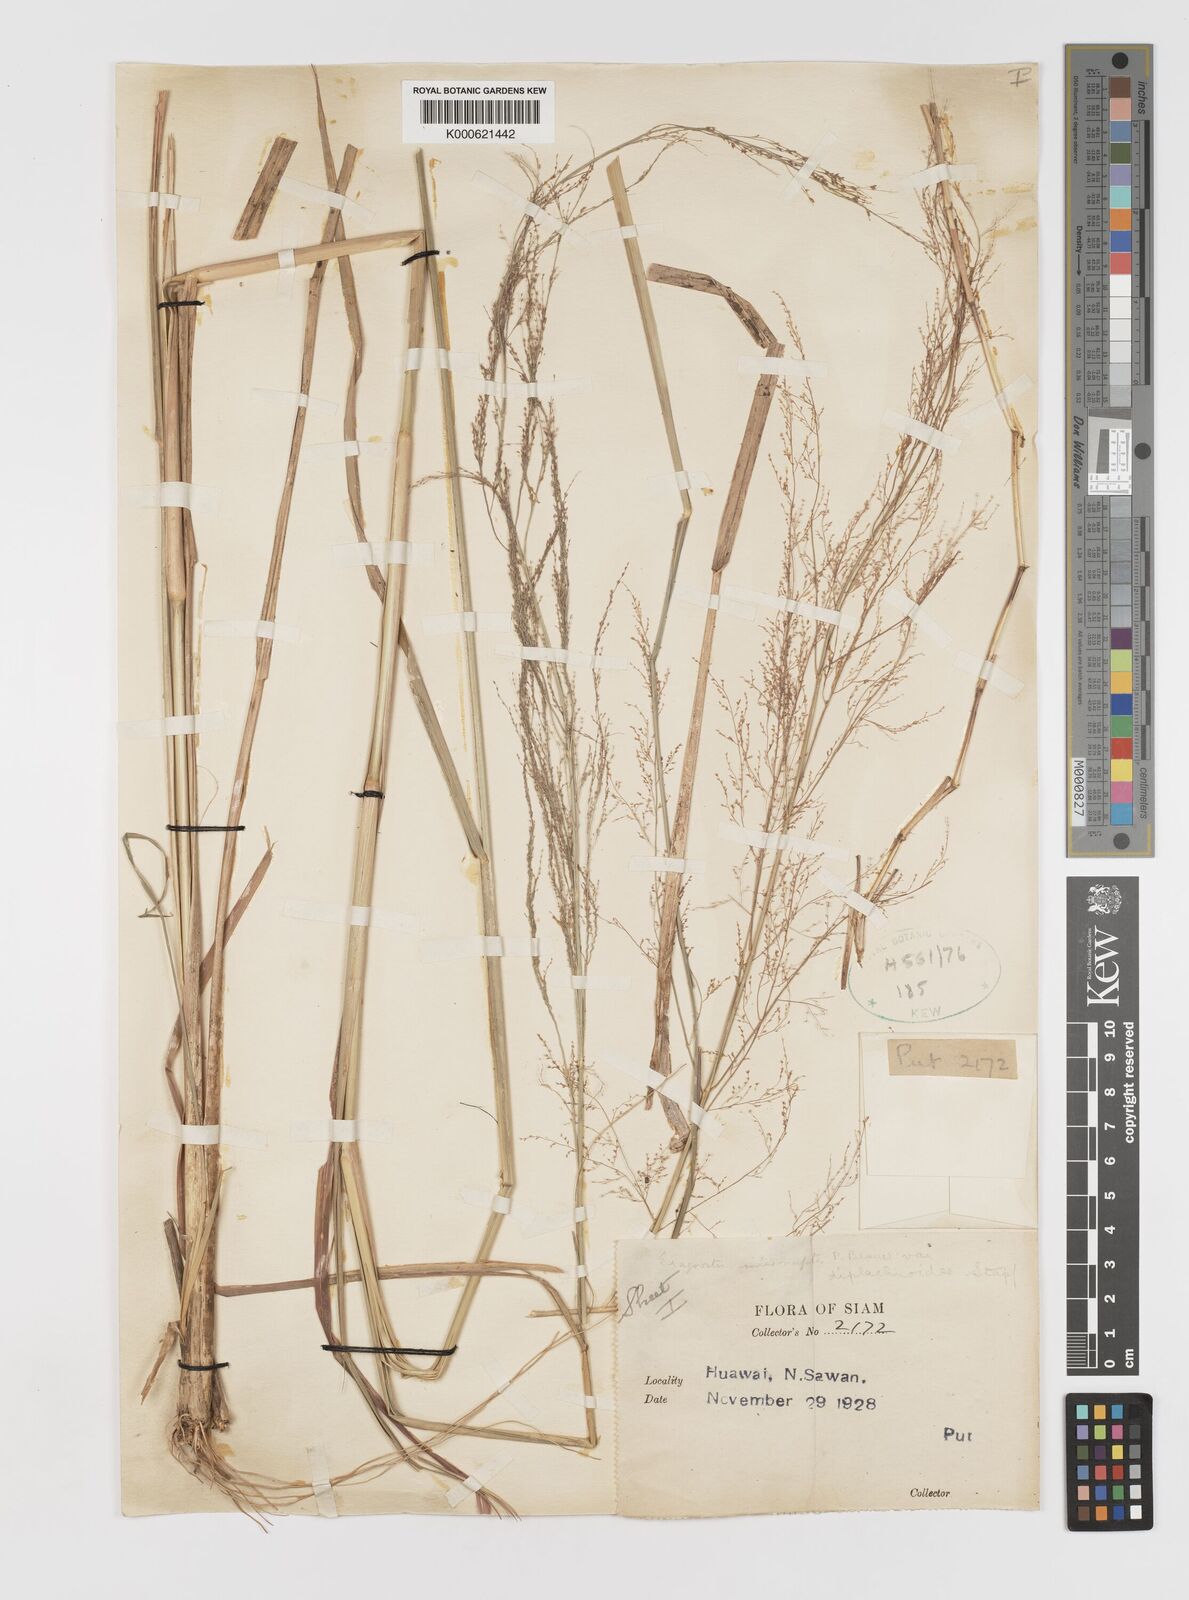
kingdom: Plantae
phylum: Tracheophyta
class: Liliopsida
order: Poales
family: Poaceae
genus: Eragrostis
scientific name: Eragrostis japonica
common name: Pond lovegrass
